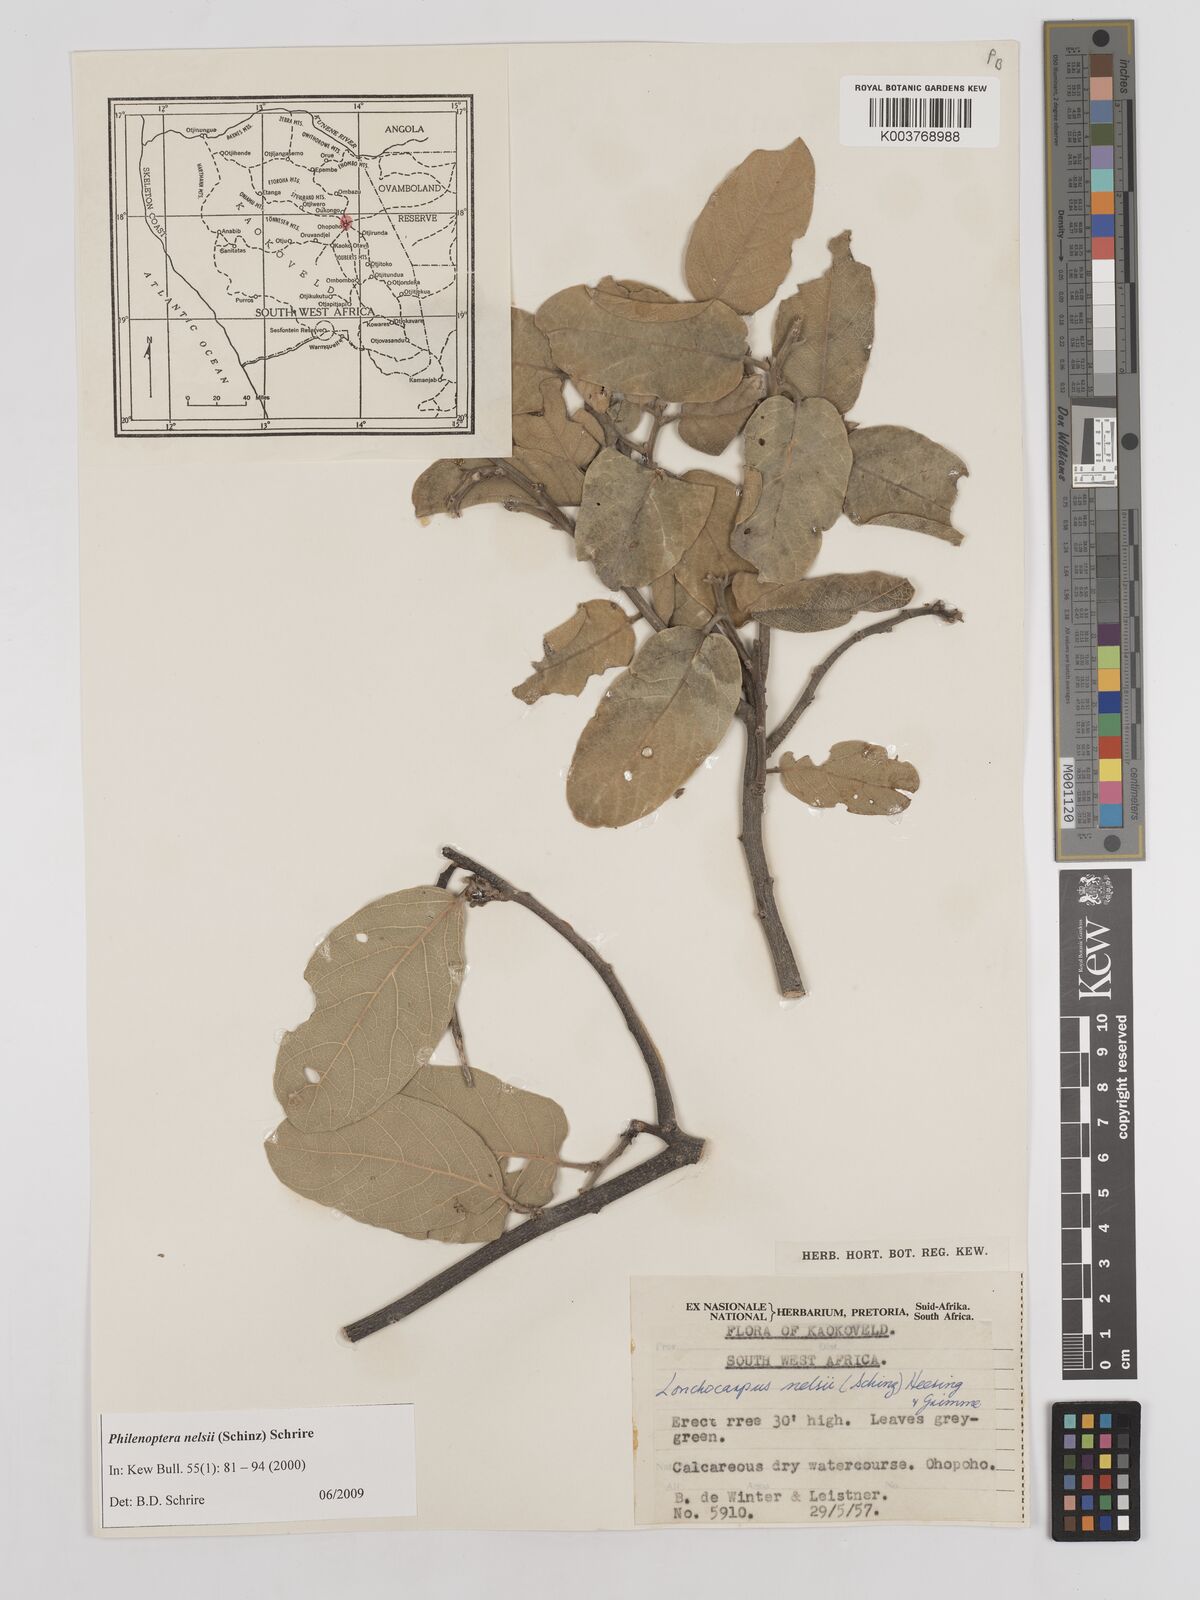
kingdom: Plantae
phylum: Tracheophyta
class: Magnoliopsida
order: Fabales
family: Fabaceae
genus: Philenoptera
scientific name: Philenoptera nelsii
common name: Kalahari apple-leaf
